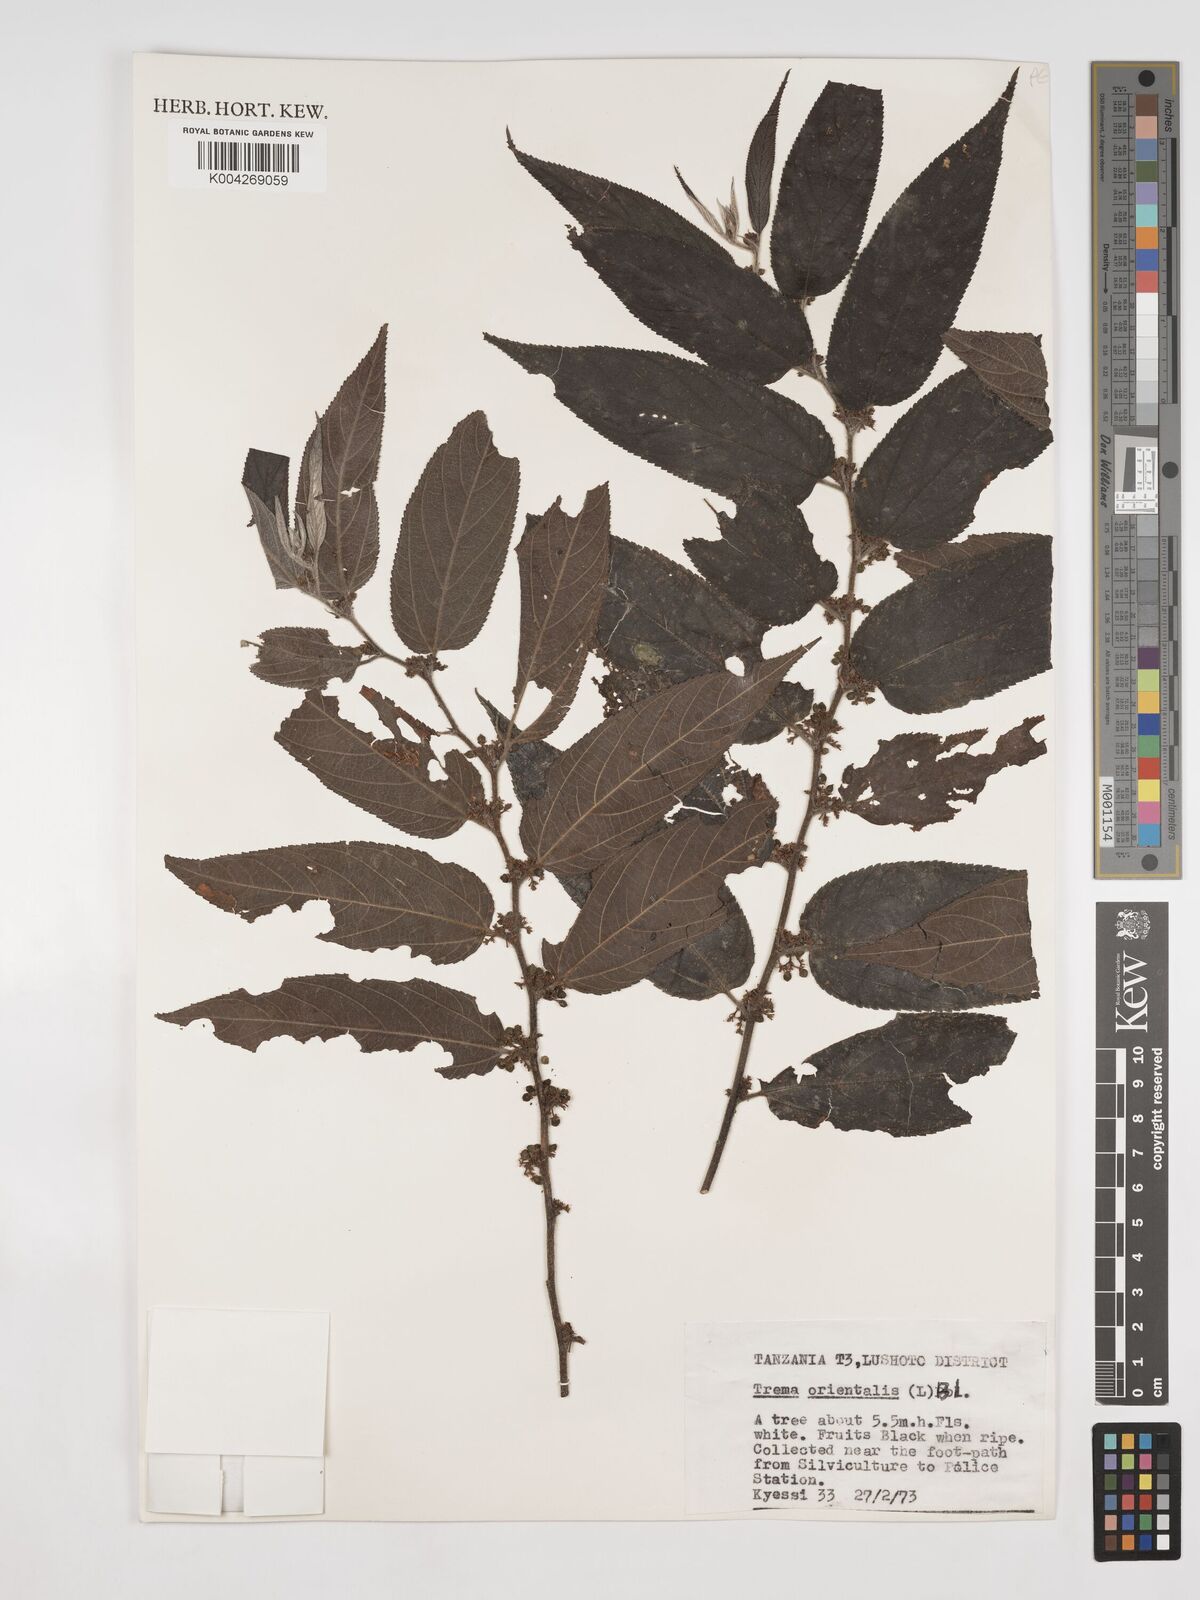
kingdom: Plantae
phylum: Tracheophyta
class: Magnoliopsida
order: Rosales
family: Cannabaceae
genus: Trema
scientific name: Trema orientale
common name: Indian charcoal tree
